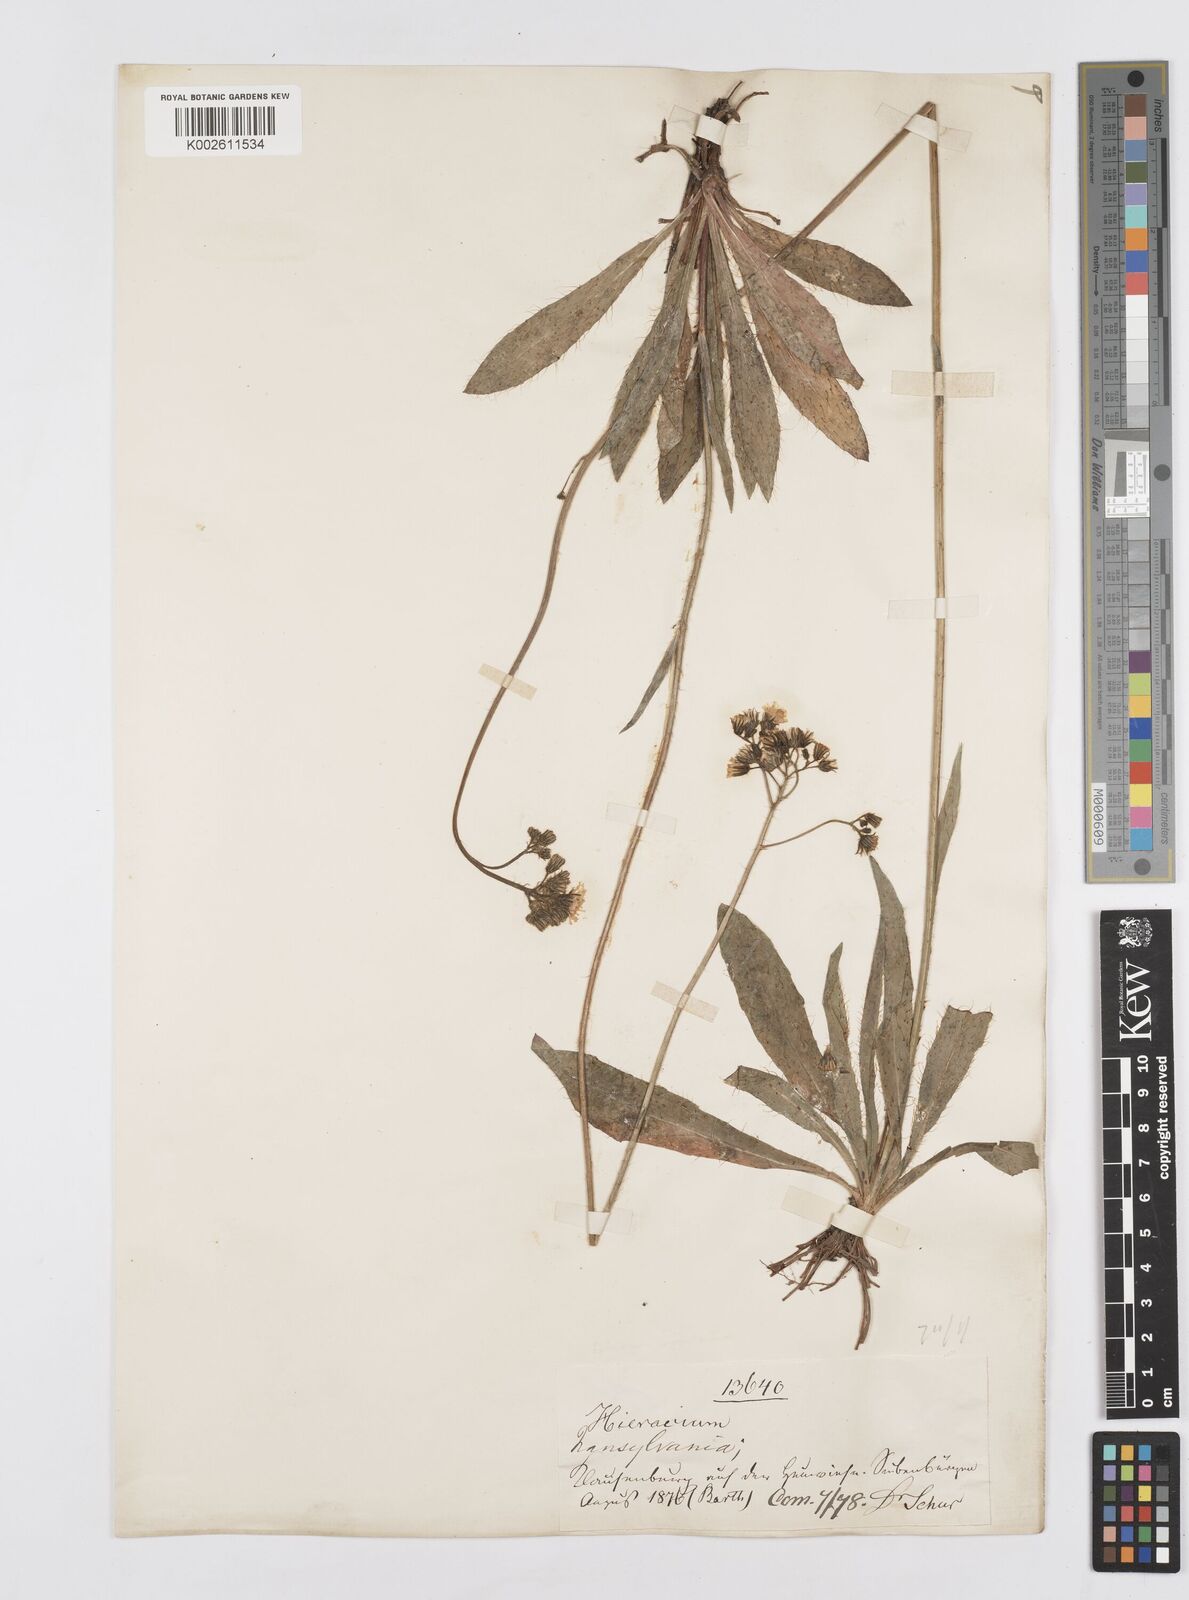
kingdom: Plantae
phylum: Tracheophyta
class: Magnoliopsida
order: Asterales
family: Asteraceae
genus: Pilosella
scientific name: Pilosella sulphurea
